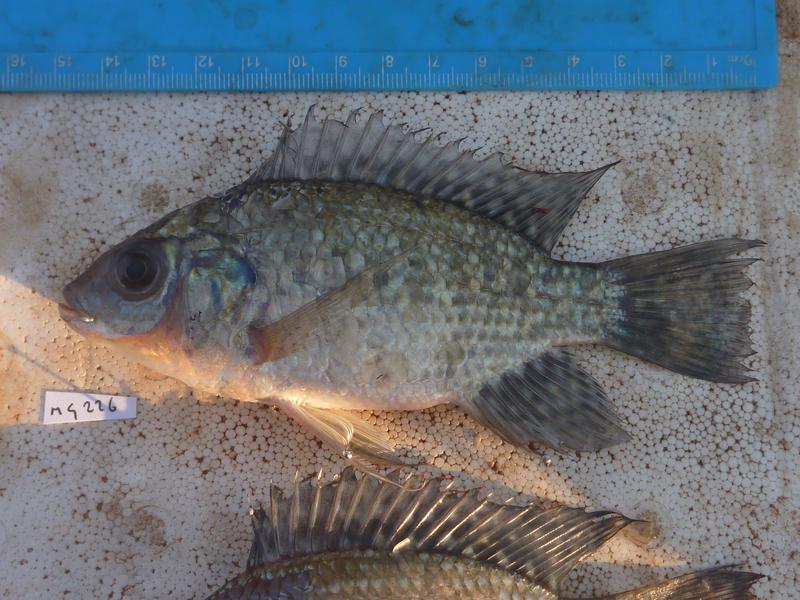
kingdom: Animalia
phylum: Chordata
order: Perciformes
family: Cichlidae
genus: Oreochromis
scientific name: Oreochromis leucostictus
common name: Blue spotted tilapia
